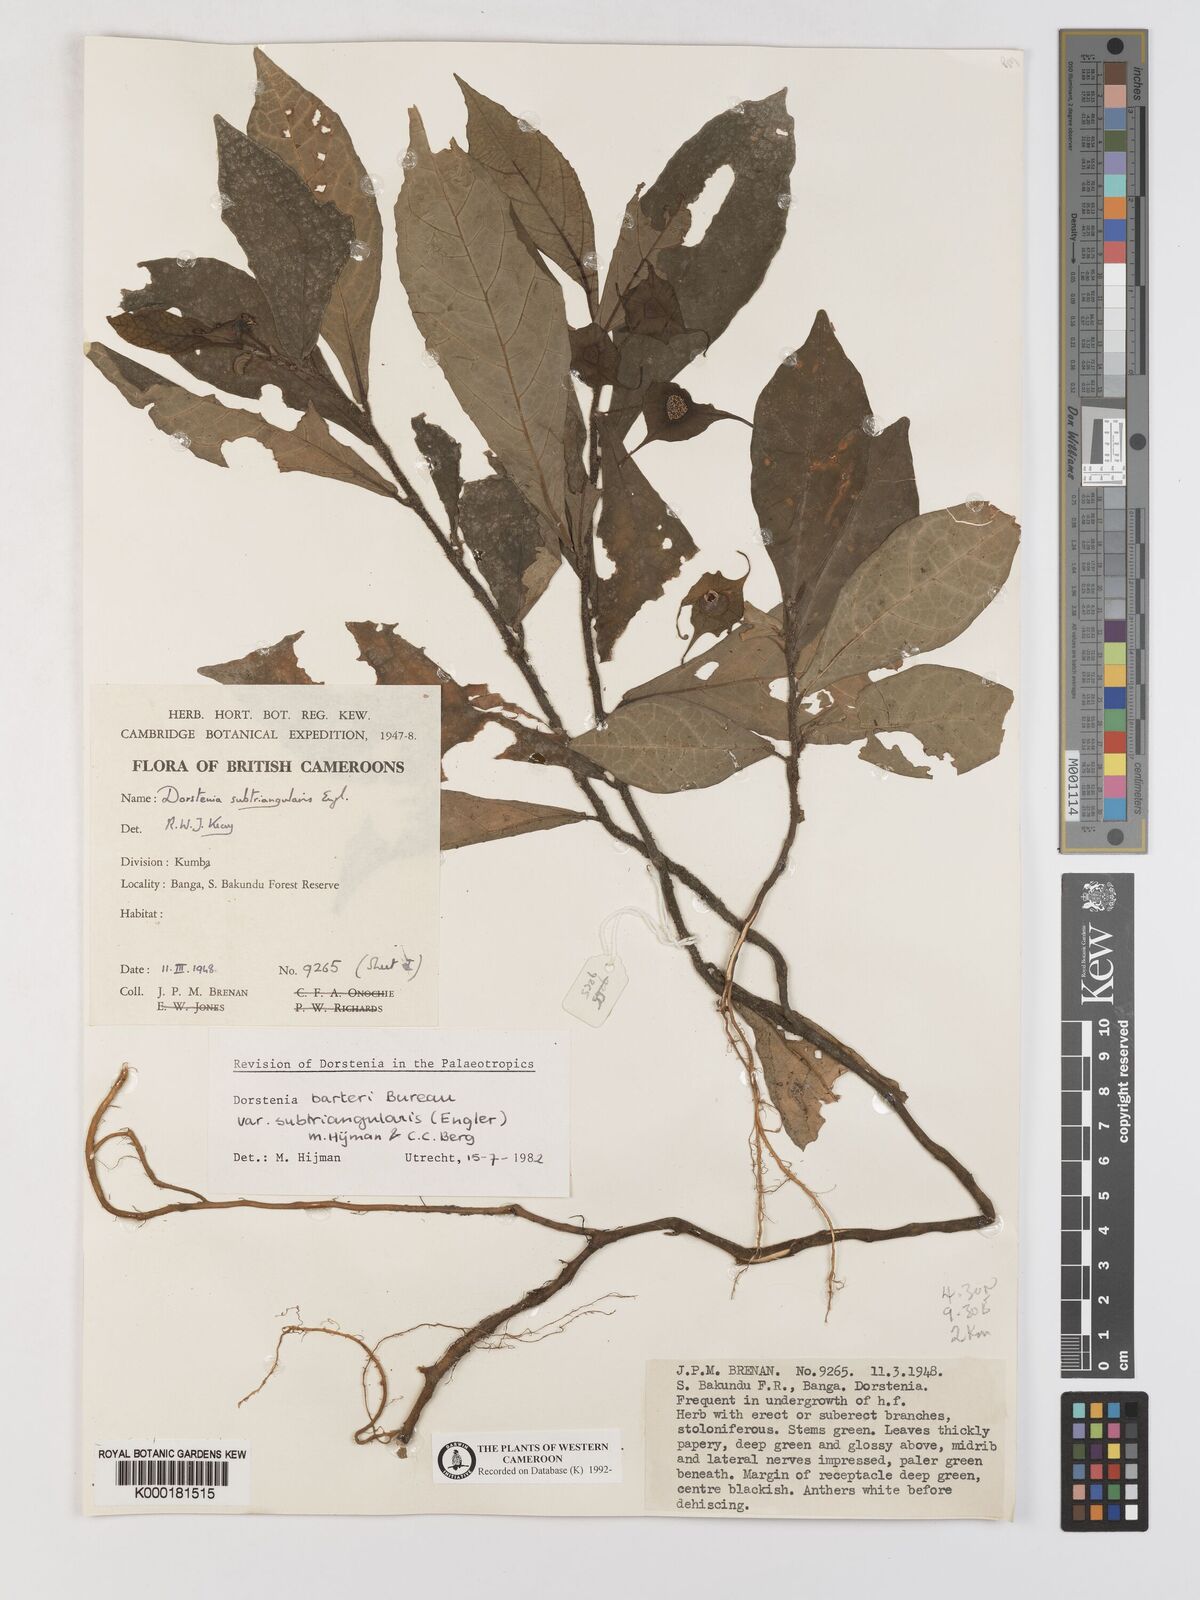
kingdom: Plantae
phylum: Tracheophyta
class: Magnoliopsida
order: Rosales
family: Moraceae
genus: Dorstenia
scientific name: Dorstenia barteri
